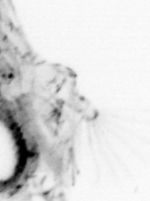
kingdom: Animalia
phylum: Arthropoda
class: Malacostraca
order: Decapoda
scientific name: Decapoda
